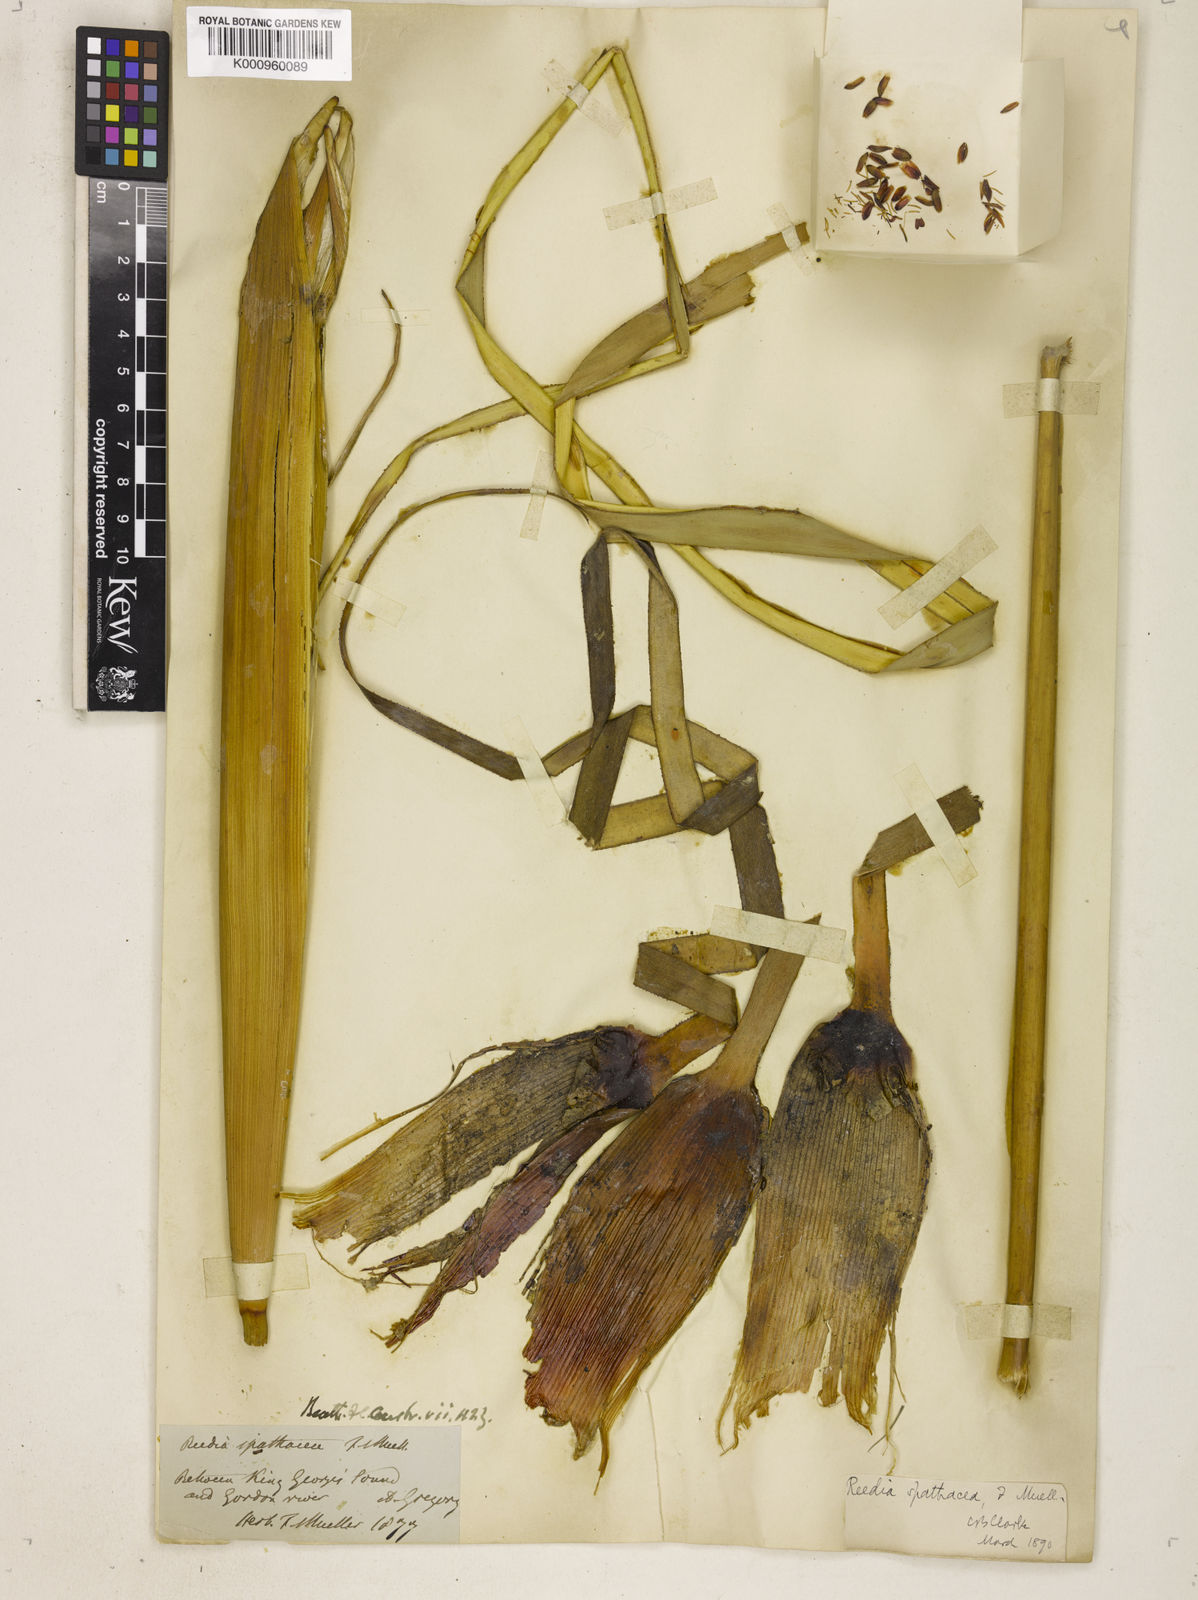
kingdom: Plantae
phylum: Tracheophyta
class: Liliopsida
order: Poales
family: Cyperaceae
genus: Reedia
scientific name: Reedia spathacea
